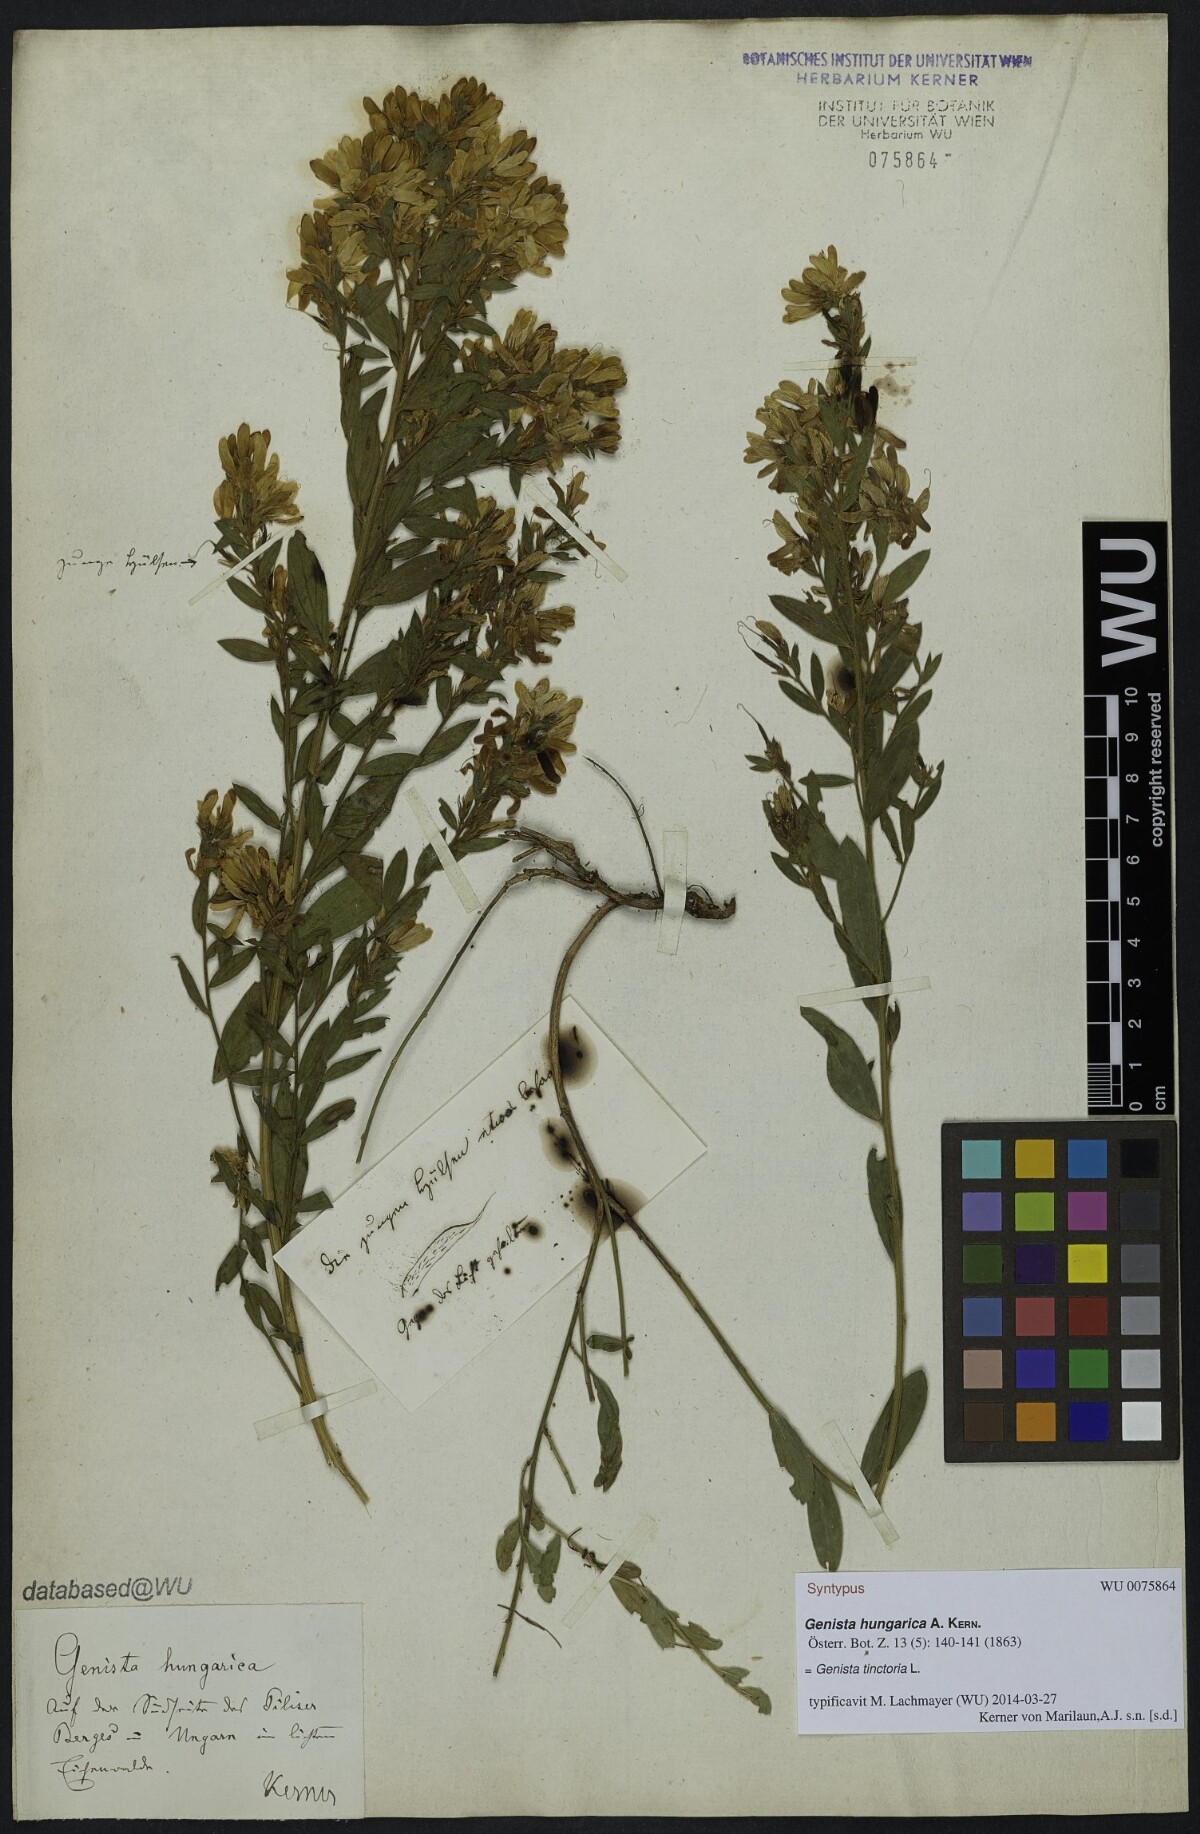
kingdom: Plantae
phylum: Tracheophyta
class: Magnoliopsida
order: Fabales
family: Fabaceae
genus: Genista
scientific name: Genista tinctoria
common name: Dyer's greenweed
